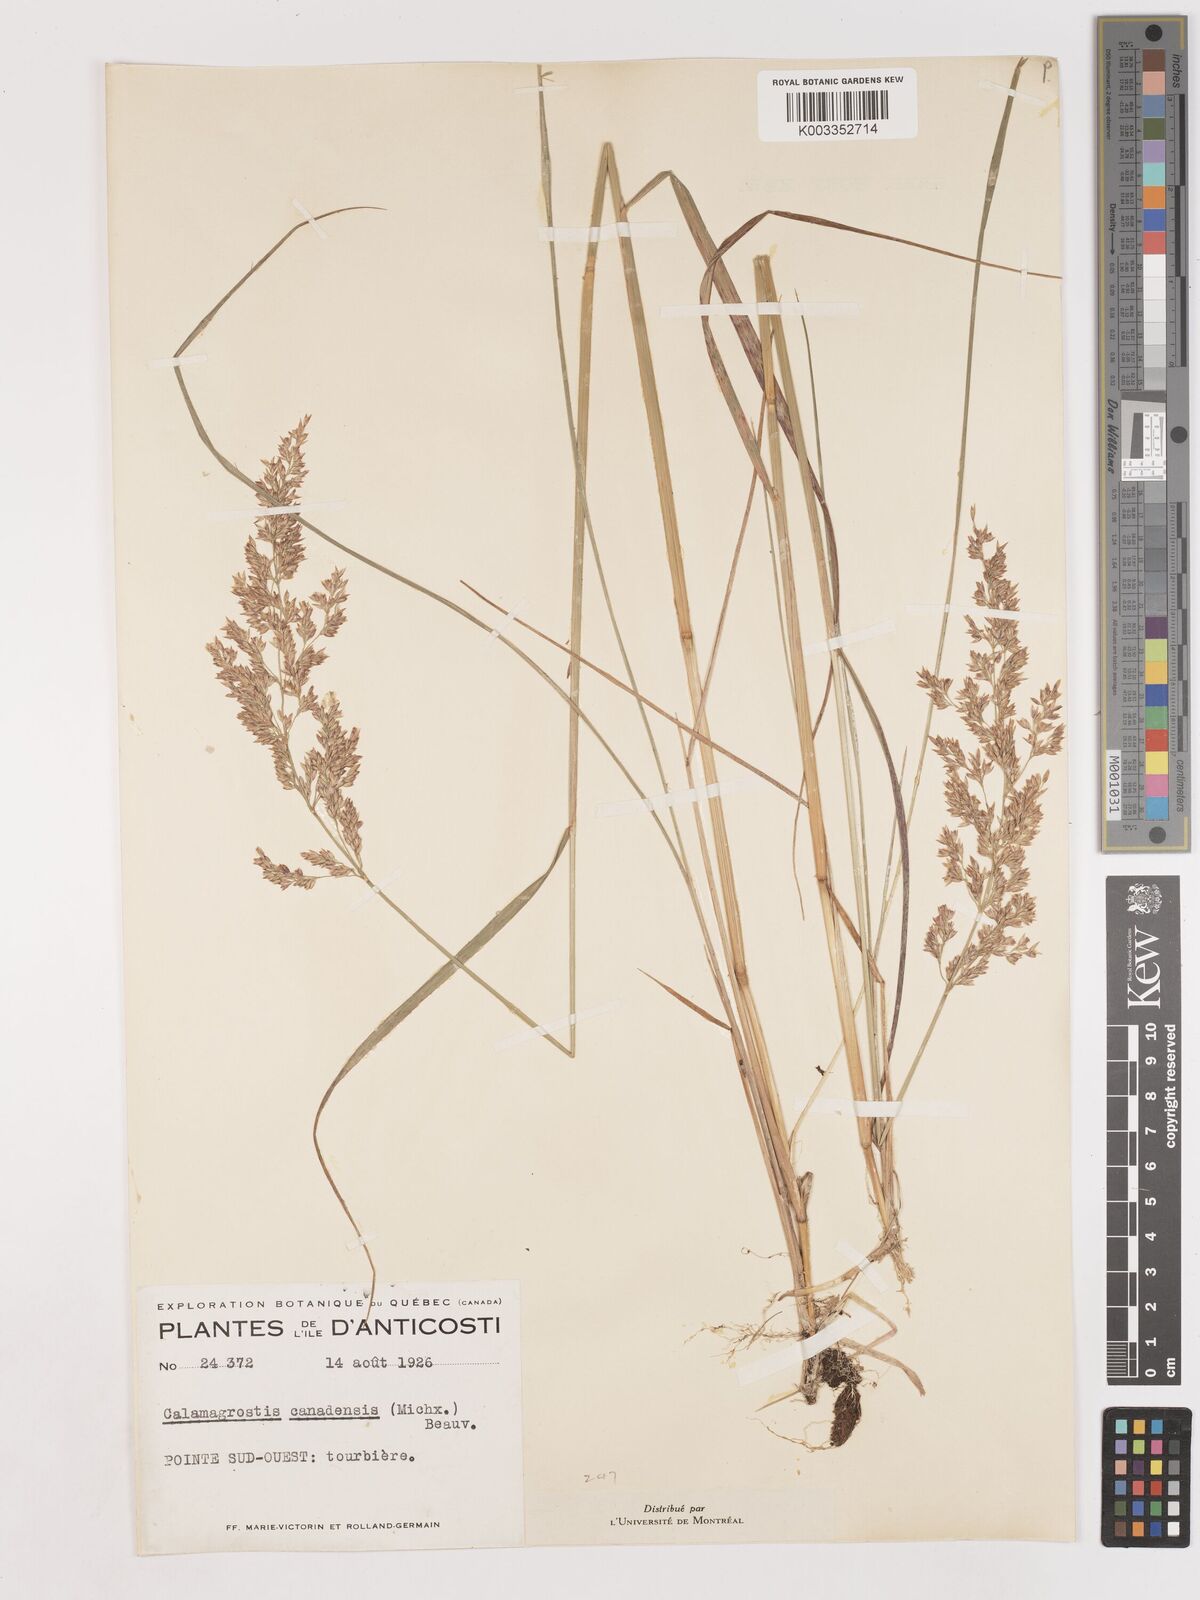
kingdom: Plantae
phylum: Tracheophyta
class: Liliopsida
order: Poales
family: Poaceae
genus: Calamagrostis
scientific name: Calamagrostis canadensis
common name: Canada bluejoint
